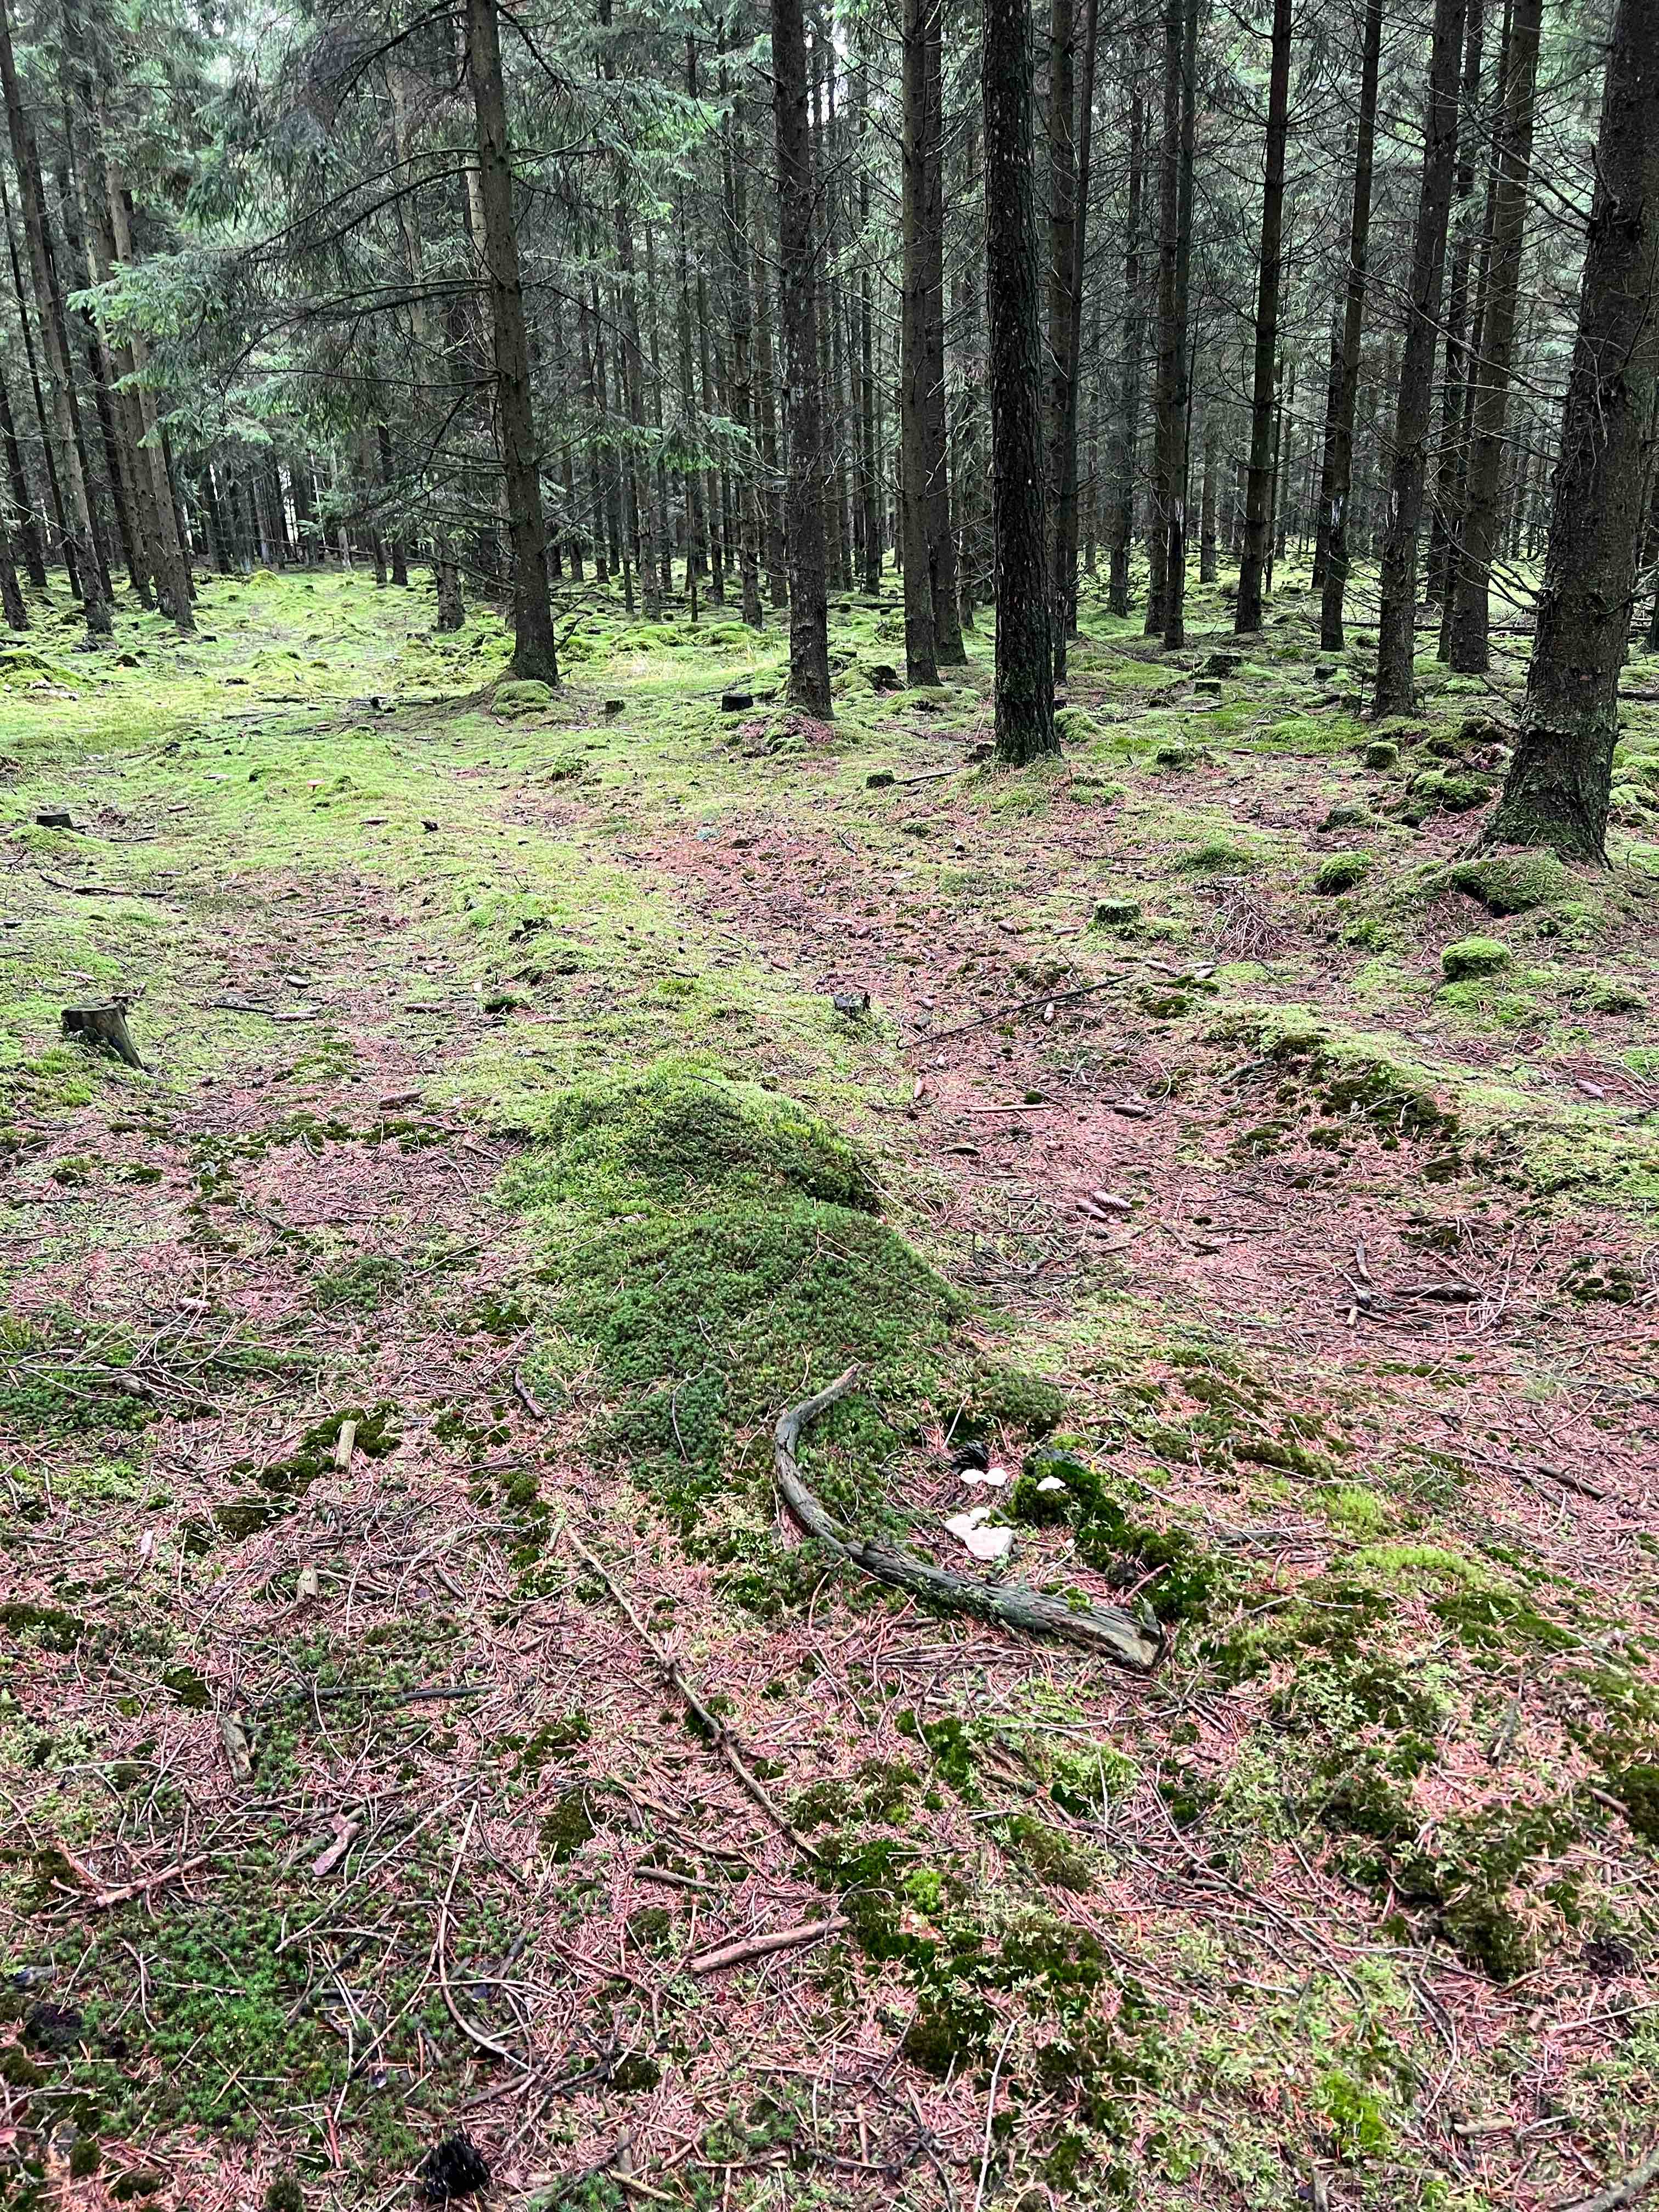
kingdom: Fungi
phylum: Basidiomycota
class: Agaricomycetes
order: Polyporales
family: Dacryobolaceae
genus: Postia
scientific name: Postia ptychogaster
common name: støvende kødporesvamp
